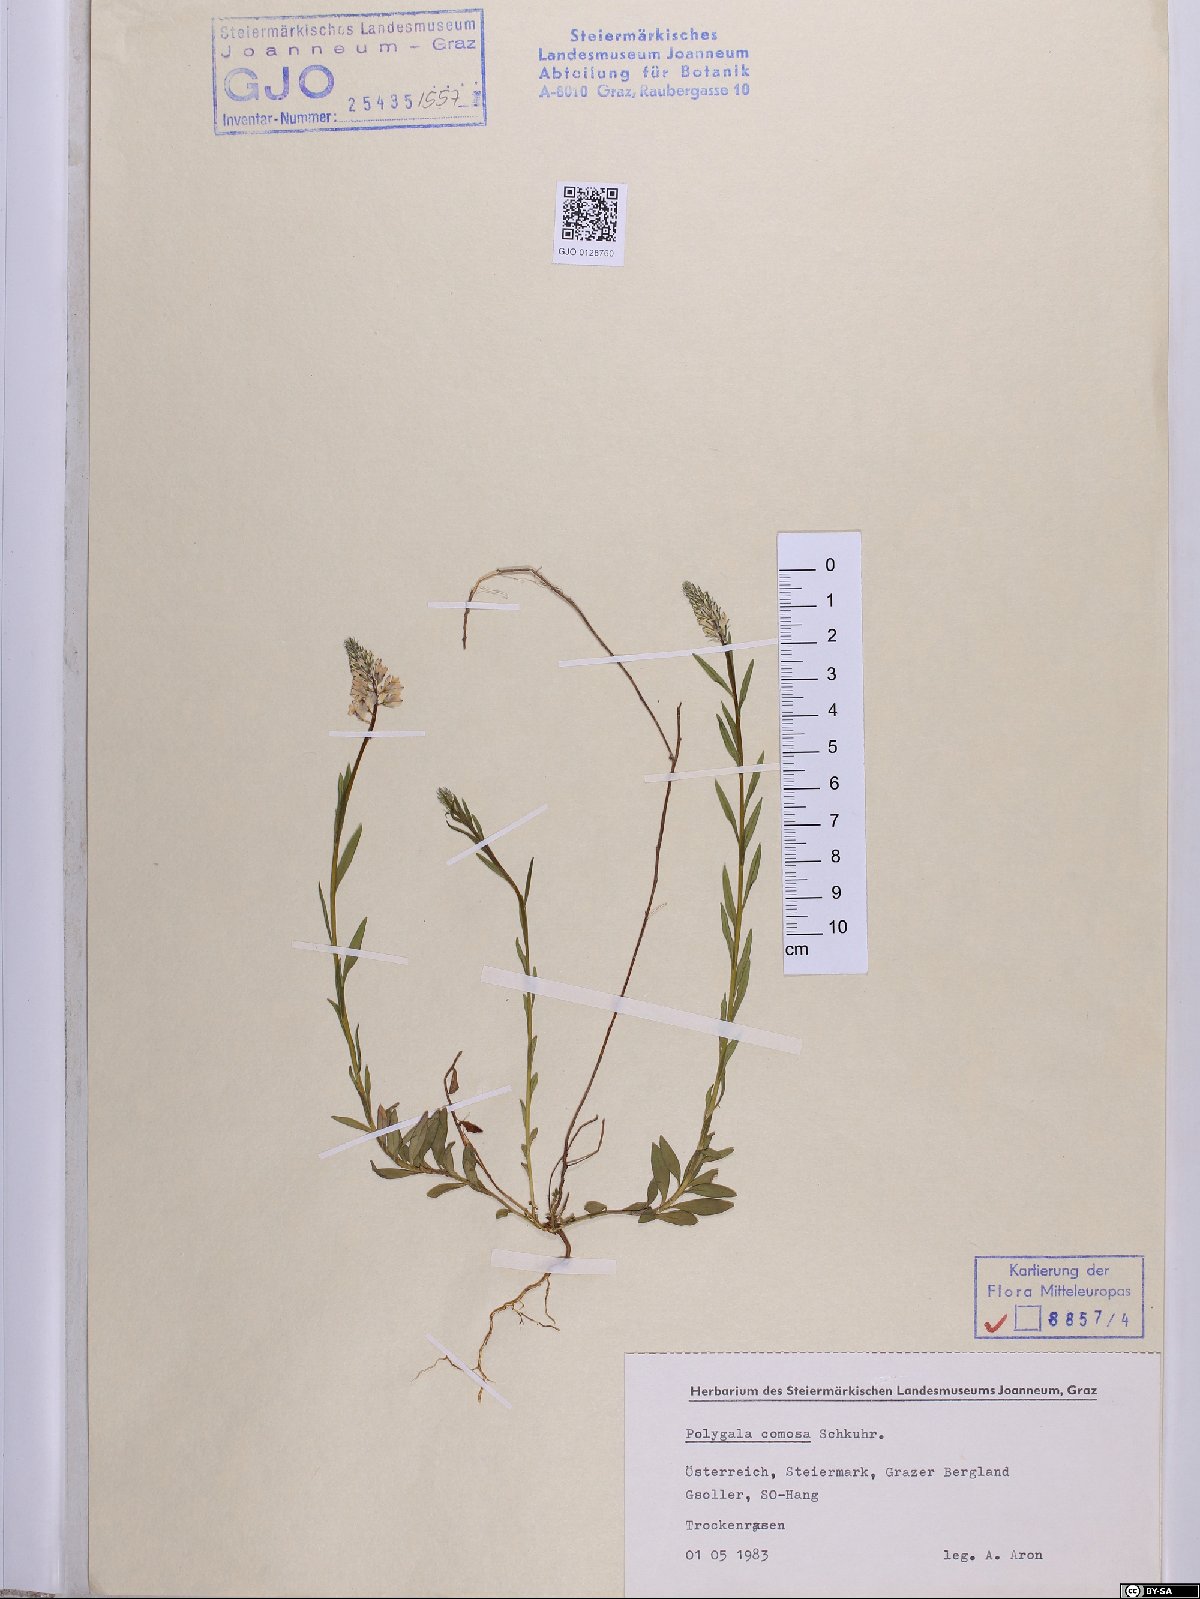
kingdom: Plantae
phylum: Tracheophyta
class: Magnoliopsida
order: Fabales
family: Polygalaceae
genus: Polygala
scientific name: Polygala comosa
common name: Tufted milkwort
